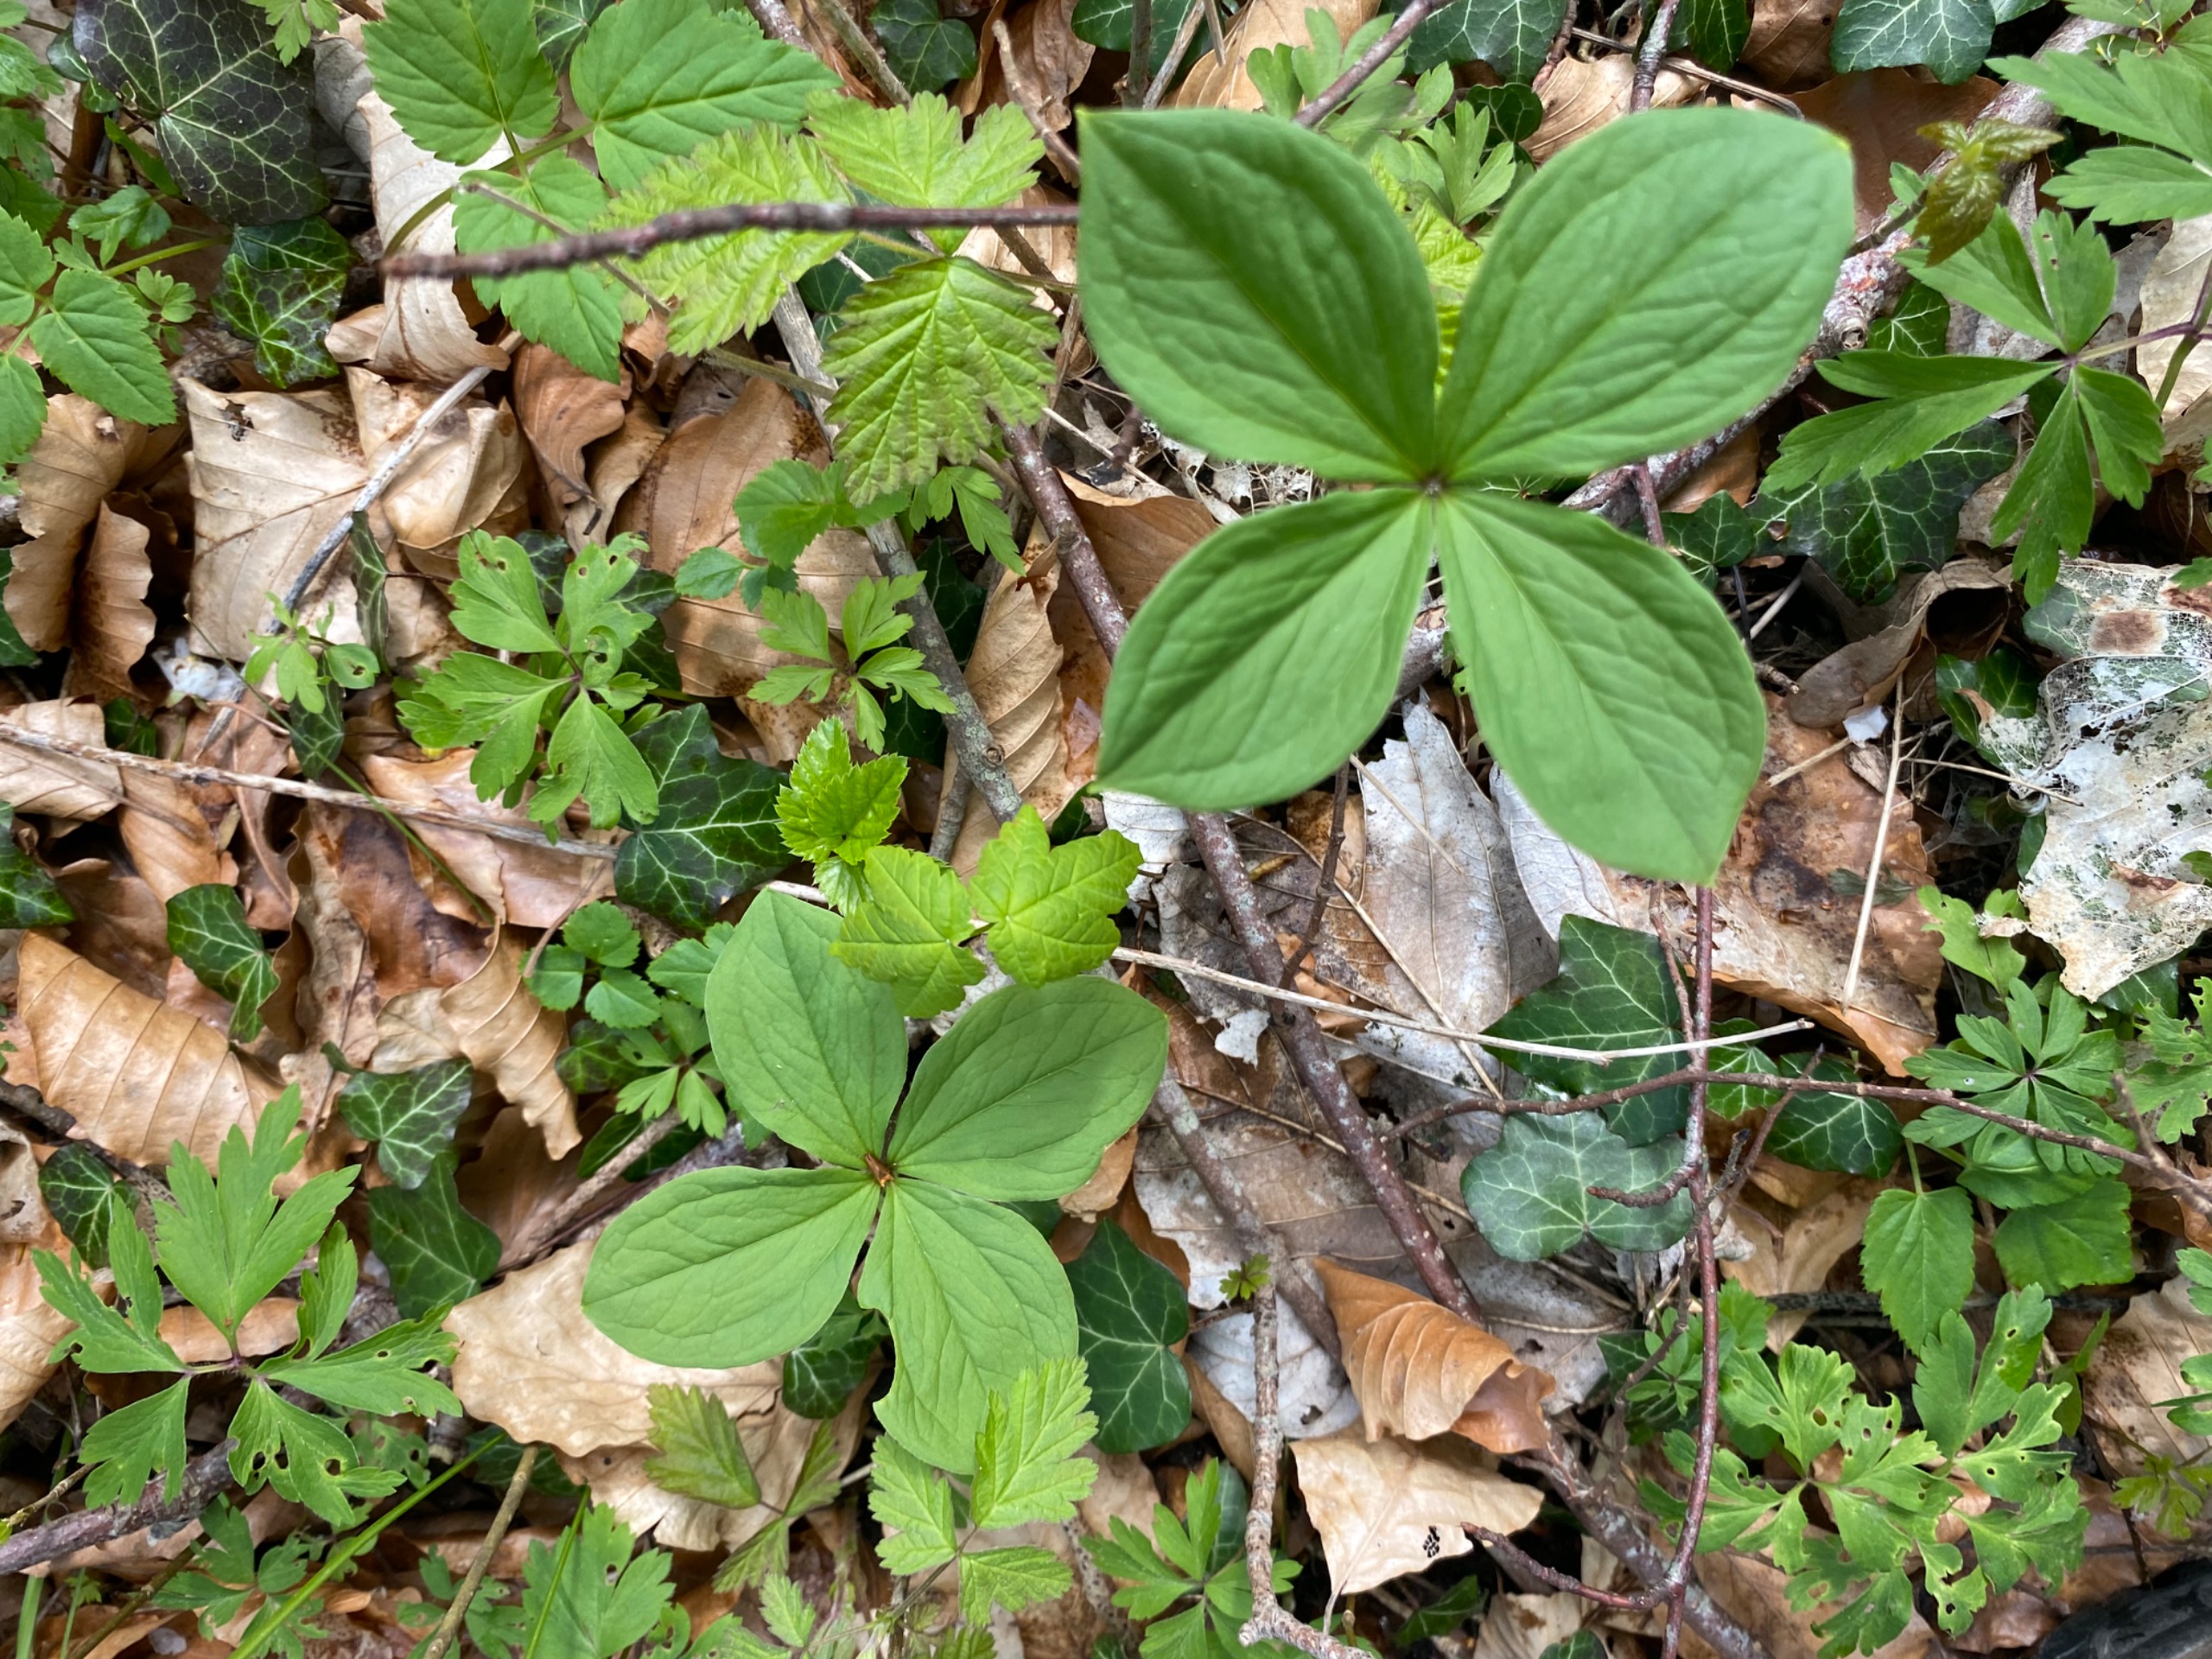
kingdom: Plantae
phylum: Tracheophyta
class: Liliopsida
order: Liliales
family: Melanthiaceae
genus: Paris
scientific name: Paris quadrifolia
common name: Firblad
